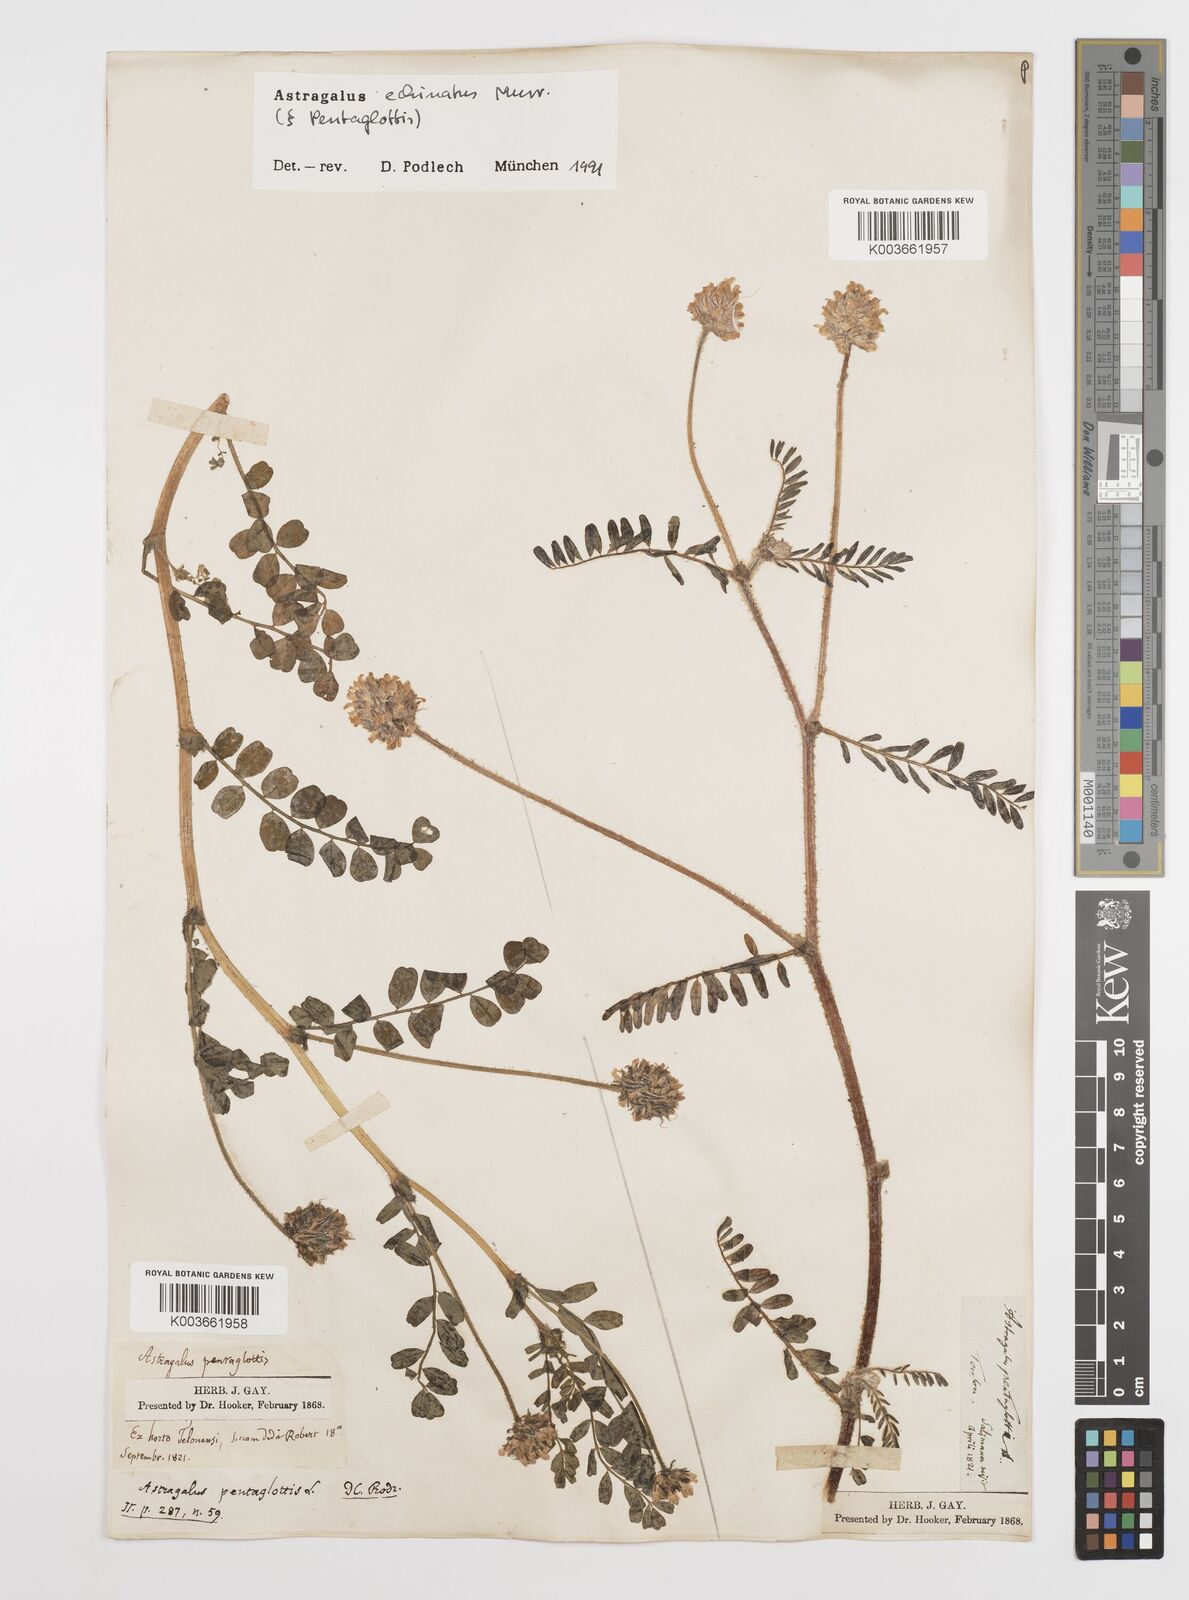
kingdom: Plantae
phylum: Tracheophyta
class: Magnoliopsida
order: Fabales
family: Fabaceae
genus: Astragalus
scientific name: Astragalus echinatus
